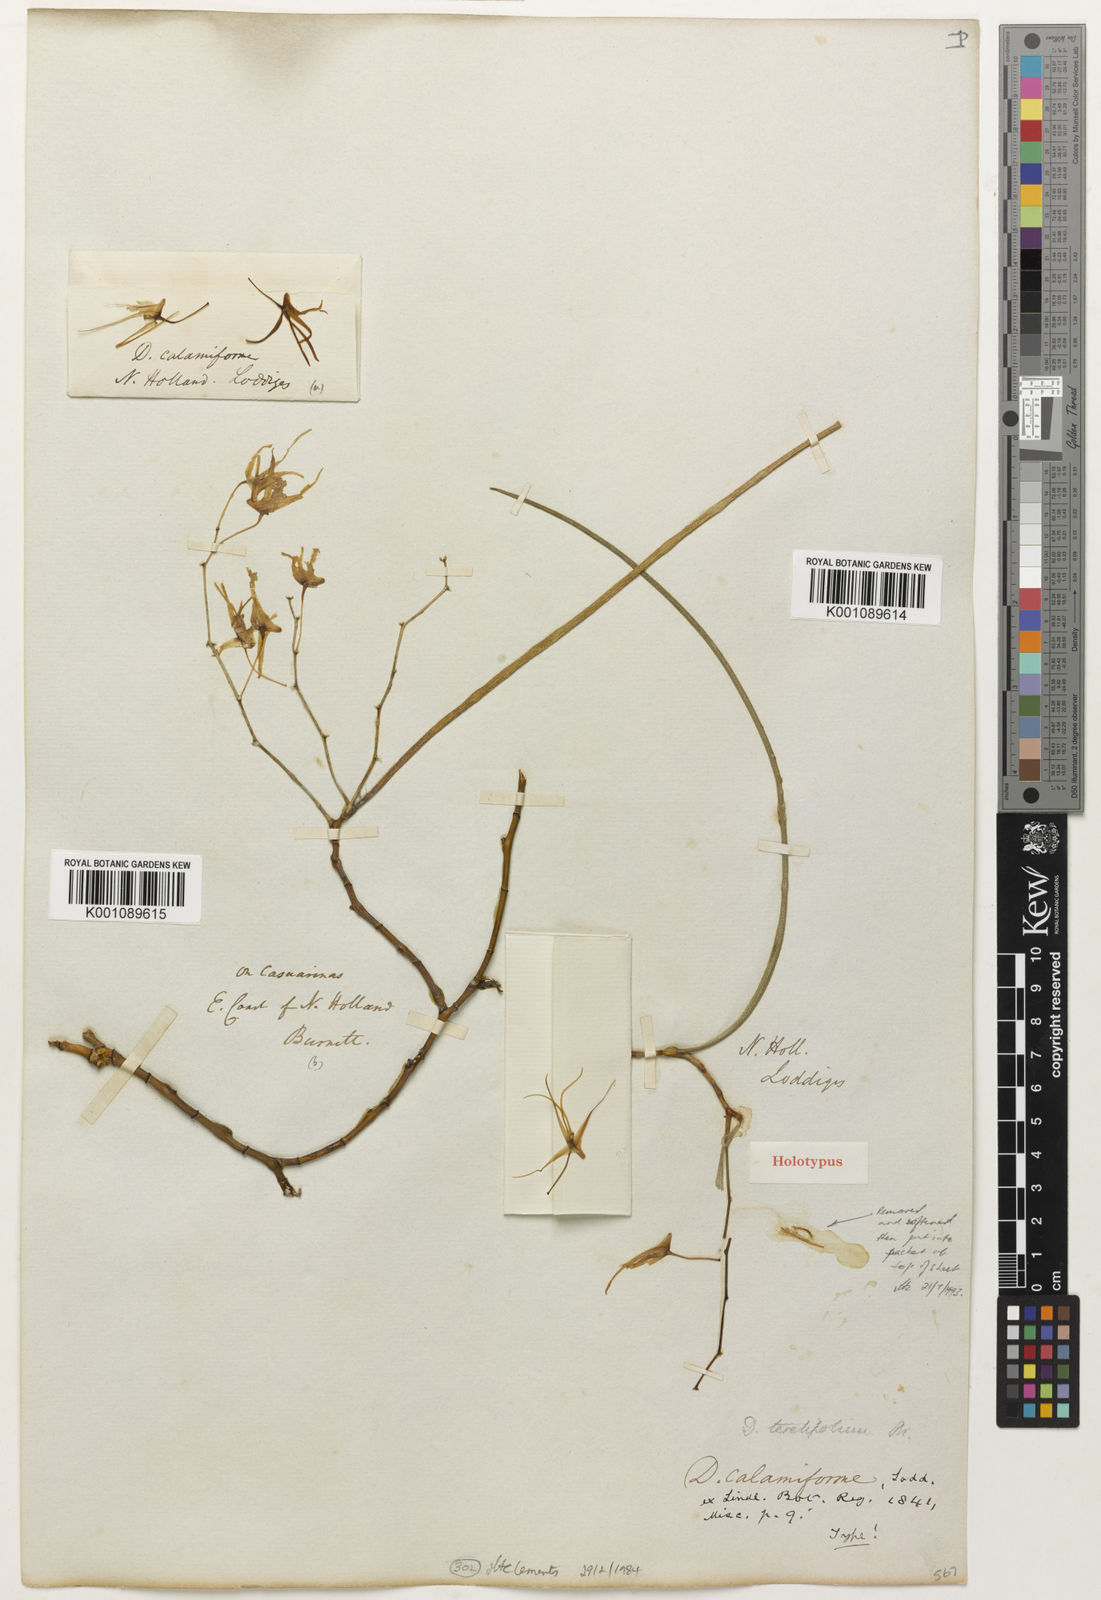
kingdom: Plantae
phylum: Tracheophyta
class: Liliopsida
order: Asparagales
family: Orchidaceae
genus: Dendrobium
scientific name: Dendrobium teretifolium
